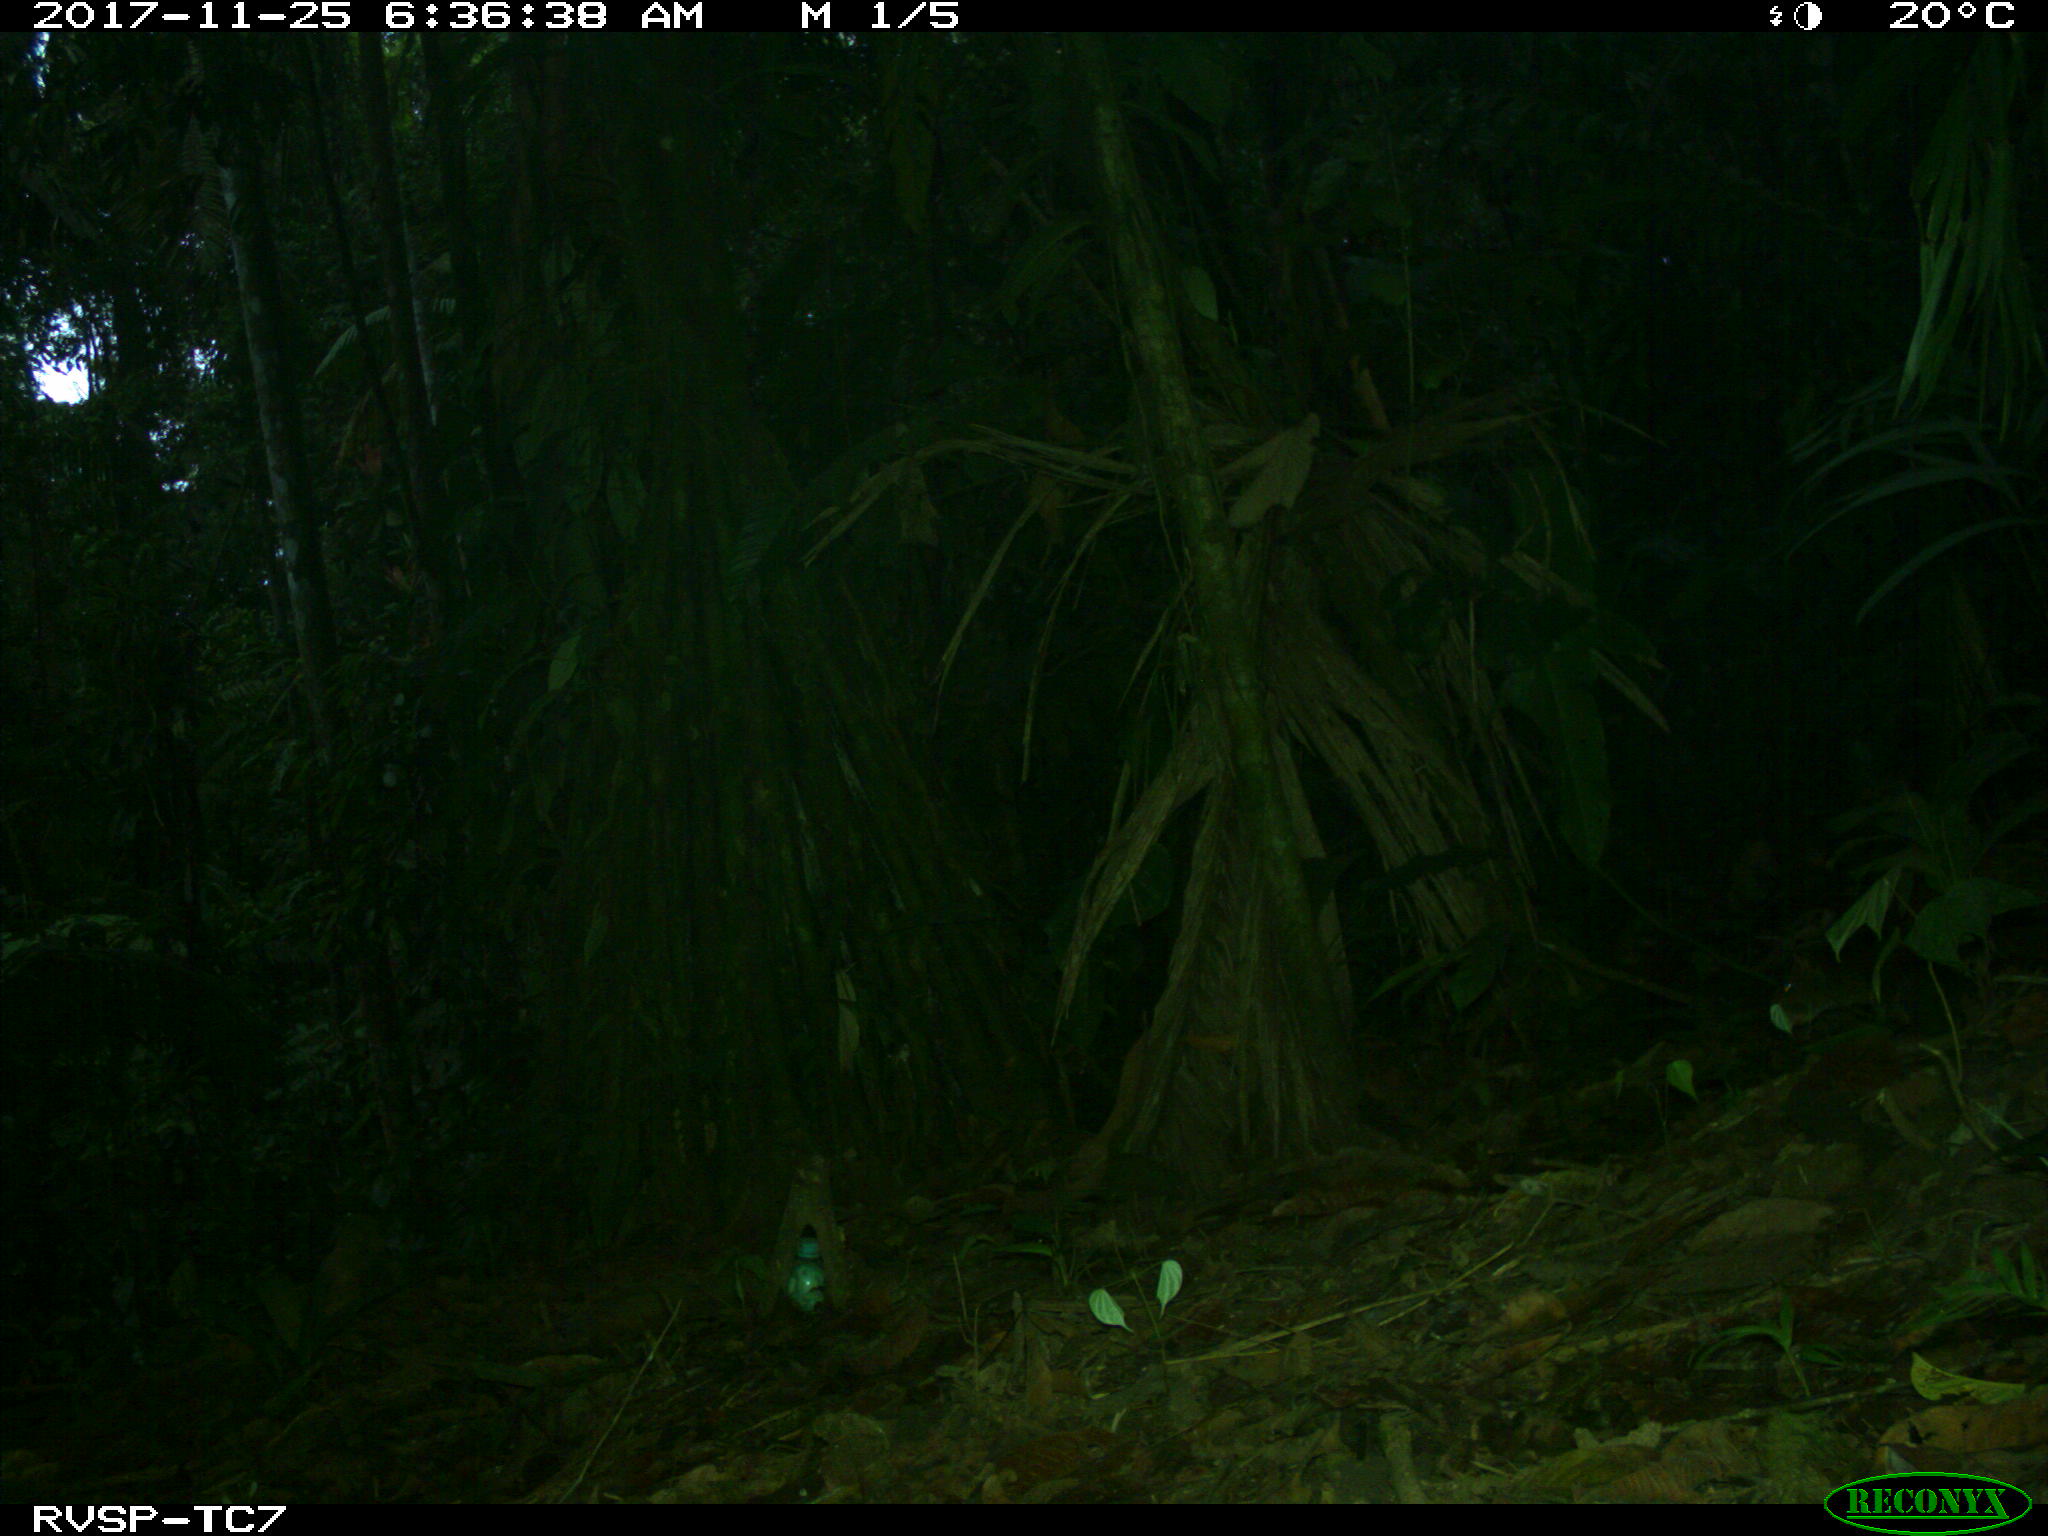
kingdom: Animalia
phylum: Chordata
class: Mammalia
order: Rodentia
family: Dasyproctidae
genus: Dasyprocta
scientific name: Dasyprocta punctata
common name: Central american agouti
